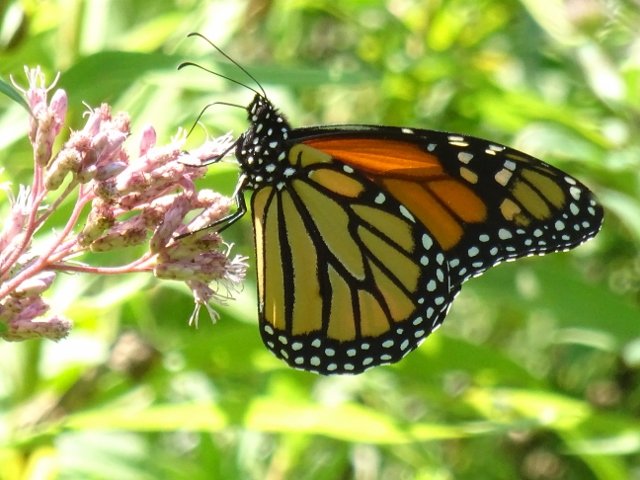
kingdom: Animalia
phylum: Arthropoda
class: Insecta
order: Lepidoptera
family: Nymphalidae
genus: Danaus
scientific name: Danaus plexippus
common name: Monarch
